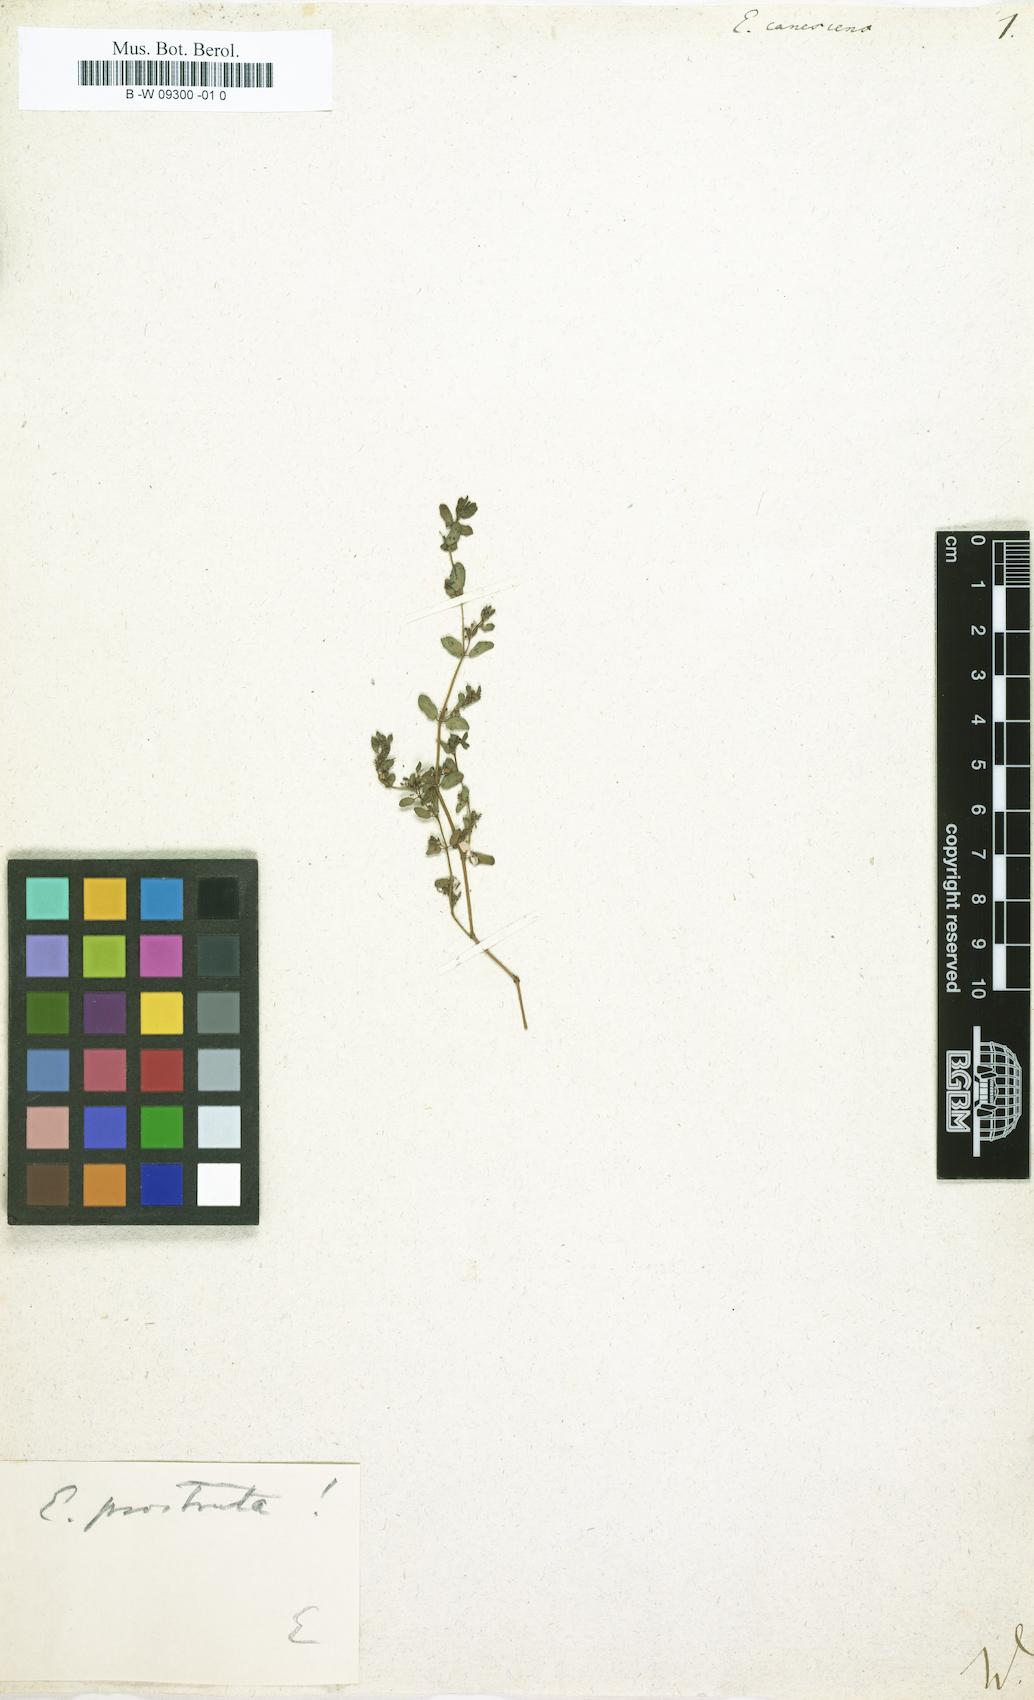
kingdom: Plantae
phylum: Tracheophyta
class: Magnoliopsida
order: Malpighiales
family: Euphorbiaceae
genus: Euphorbia
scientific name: Euphorbia chamaesyce
